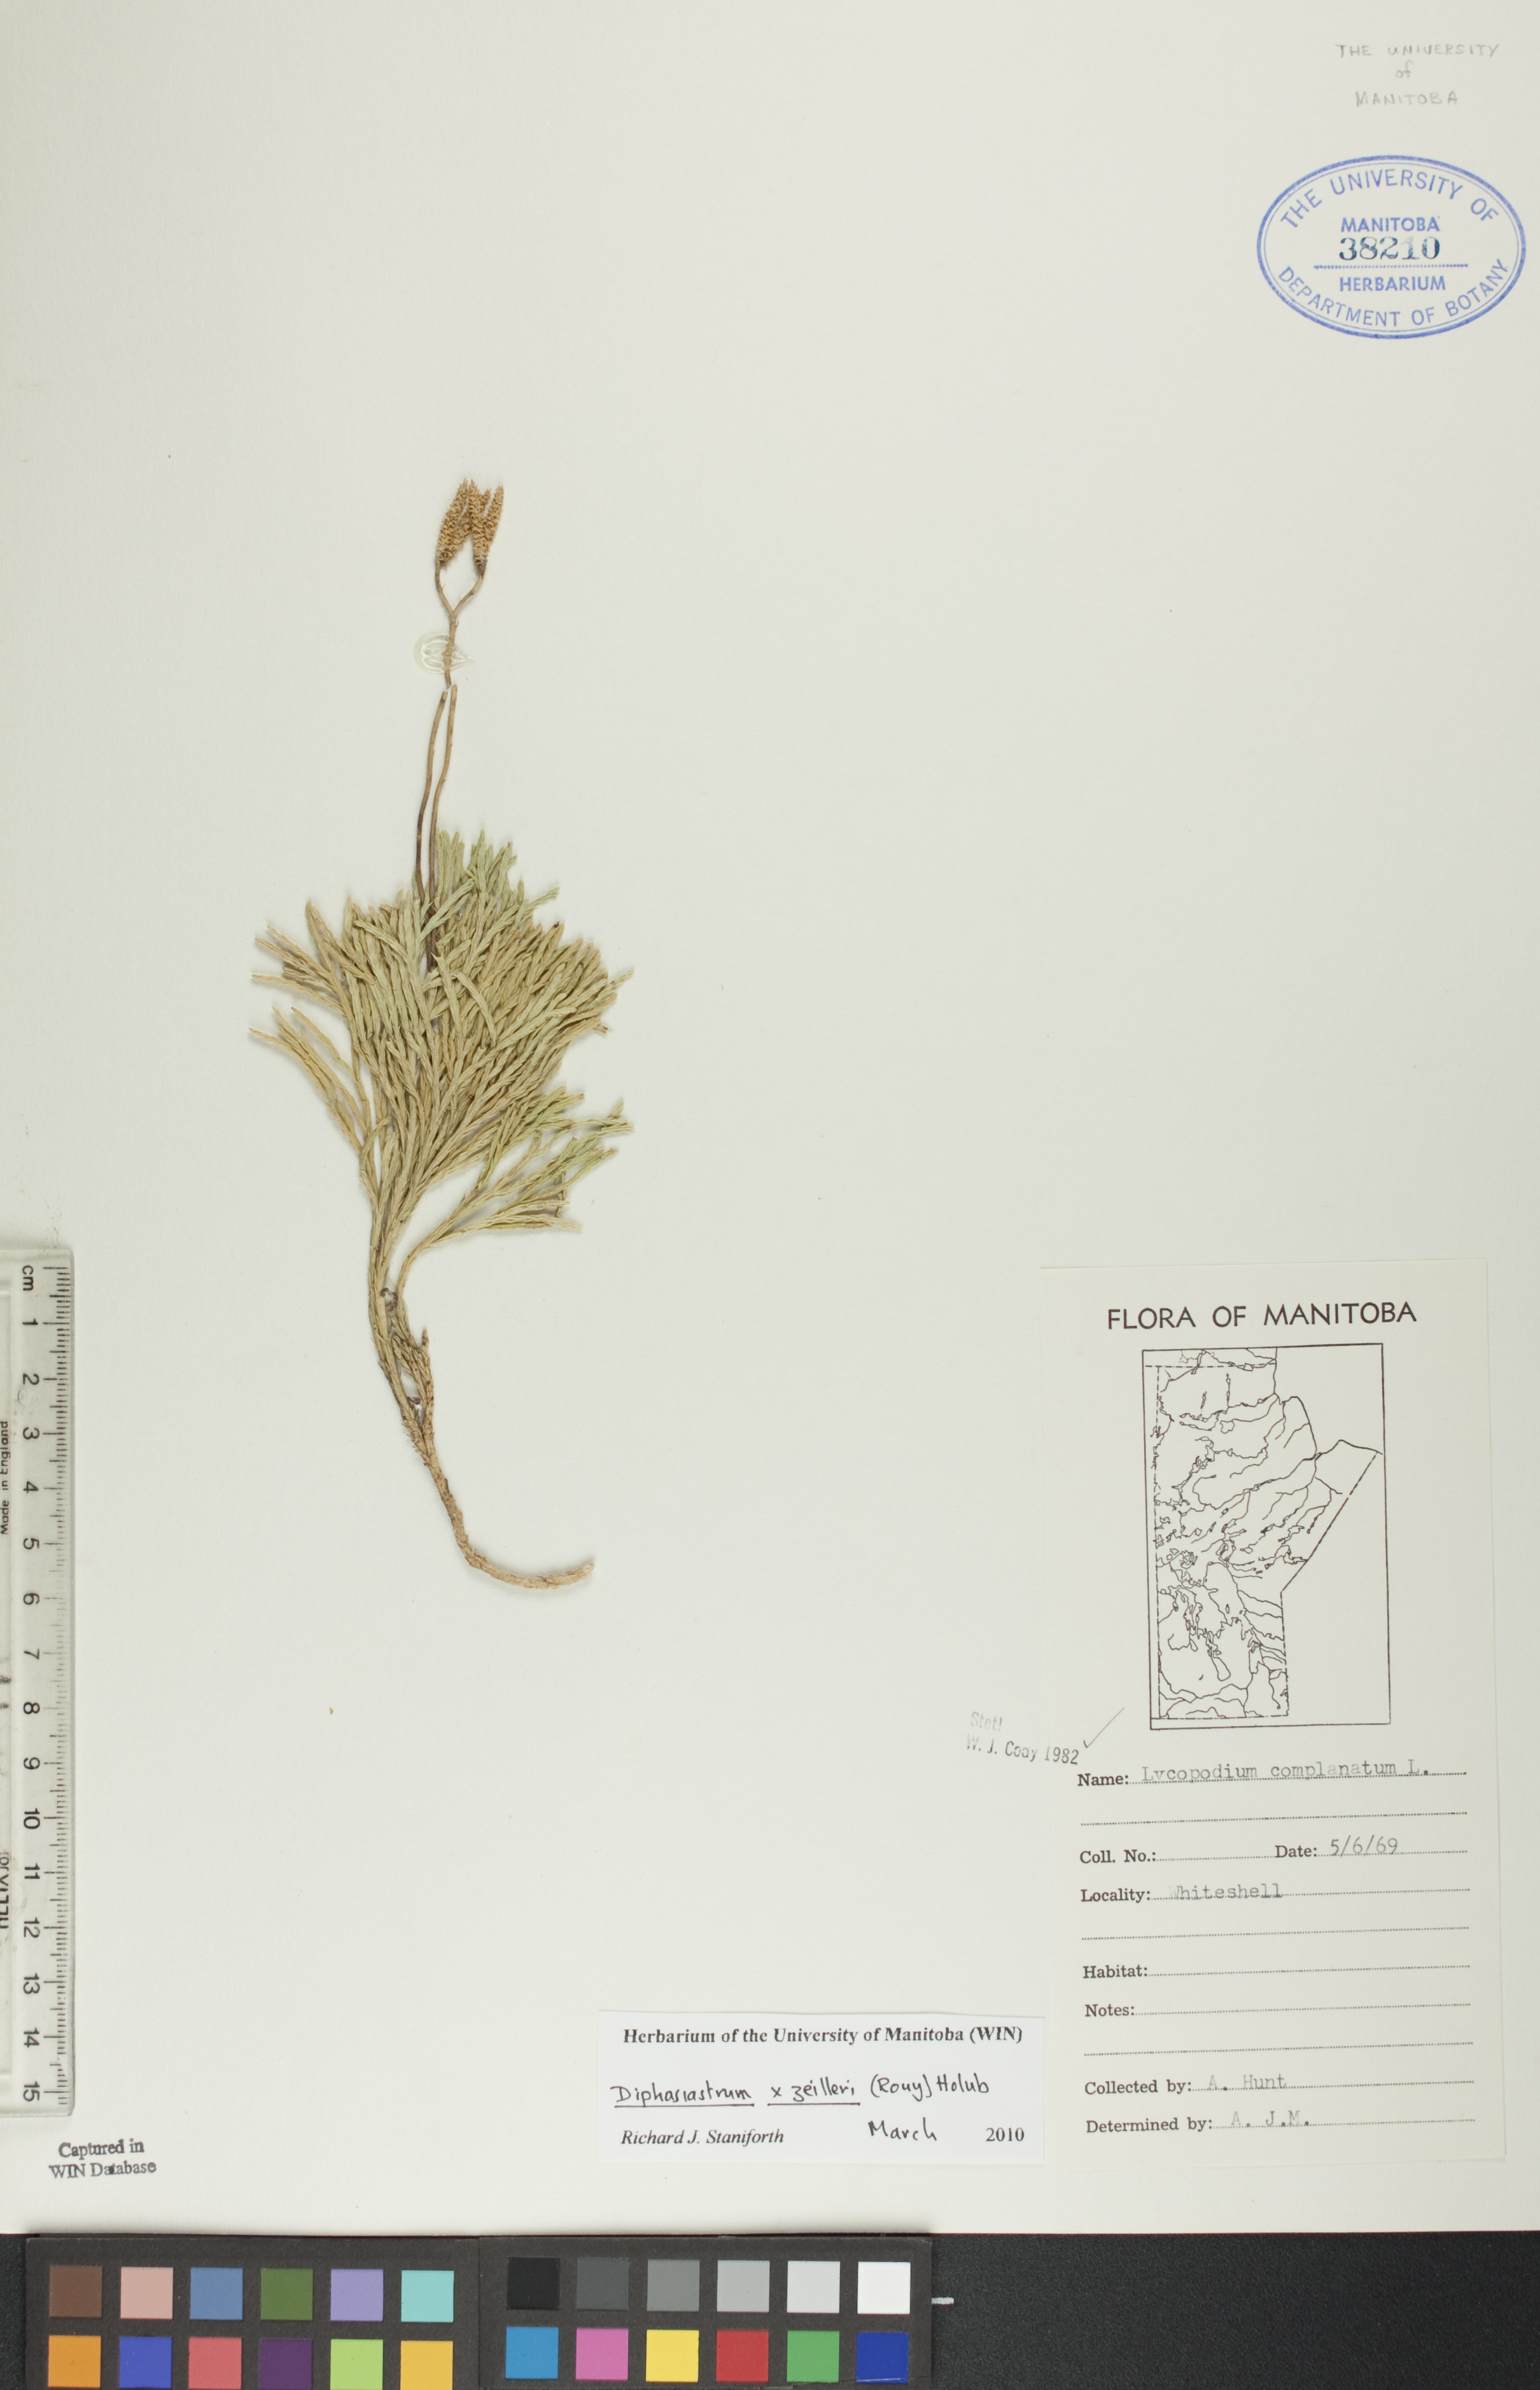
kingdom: Plantae
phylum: Tracheophyta
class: Lycopodiopsida
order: Lycopodiales
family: Lycopodiaceae
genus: Diphasiastrum
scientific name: Diphasiastrum zeilleri
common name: Zeiller's clubmoss
